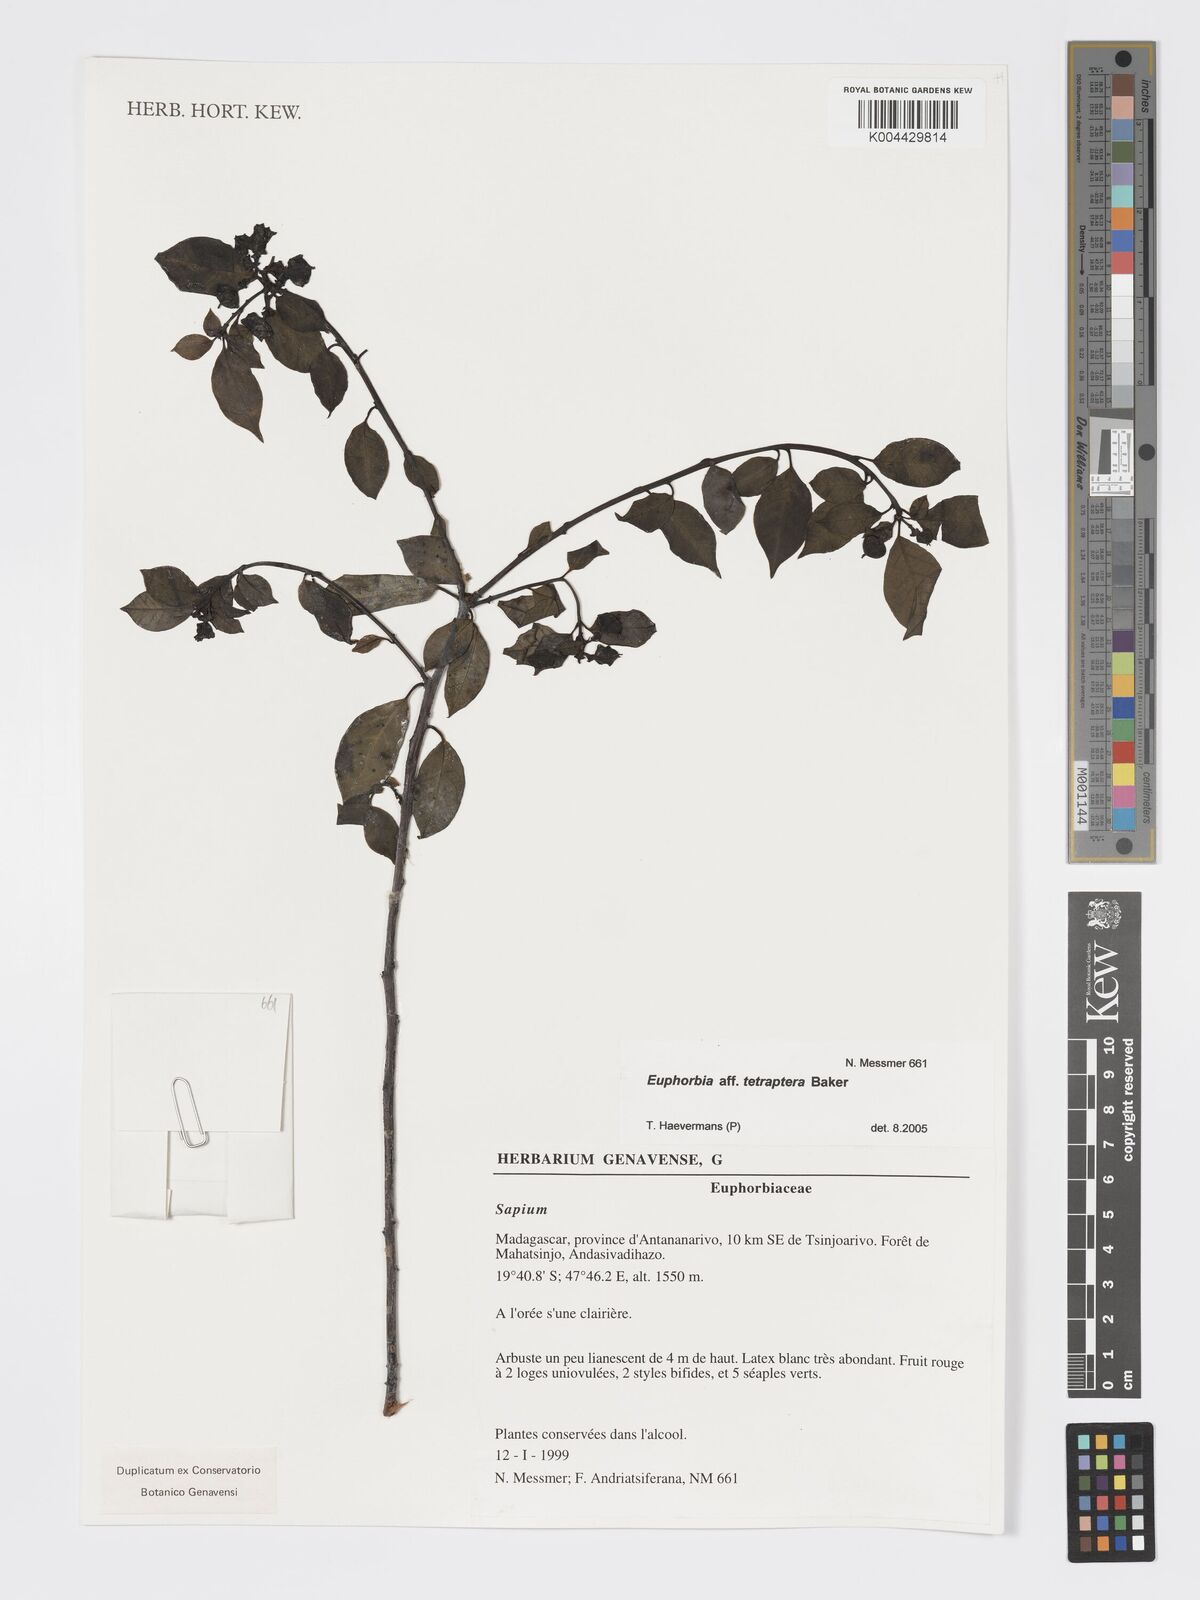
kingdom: Plantae
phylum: Tracheophyta
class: Magnoliopsida
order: Malpighiales
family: Euphorbiaceae
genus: Euphorbia
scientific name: Euphorbia tetraptera
